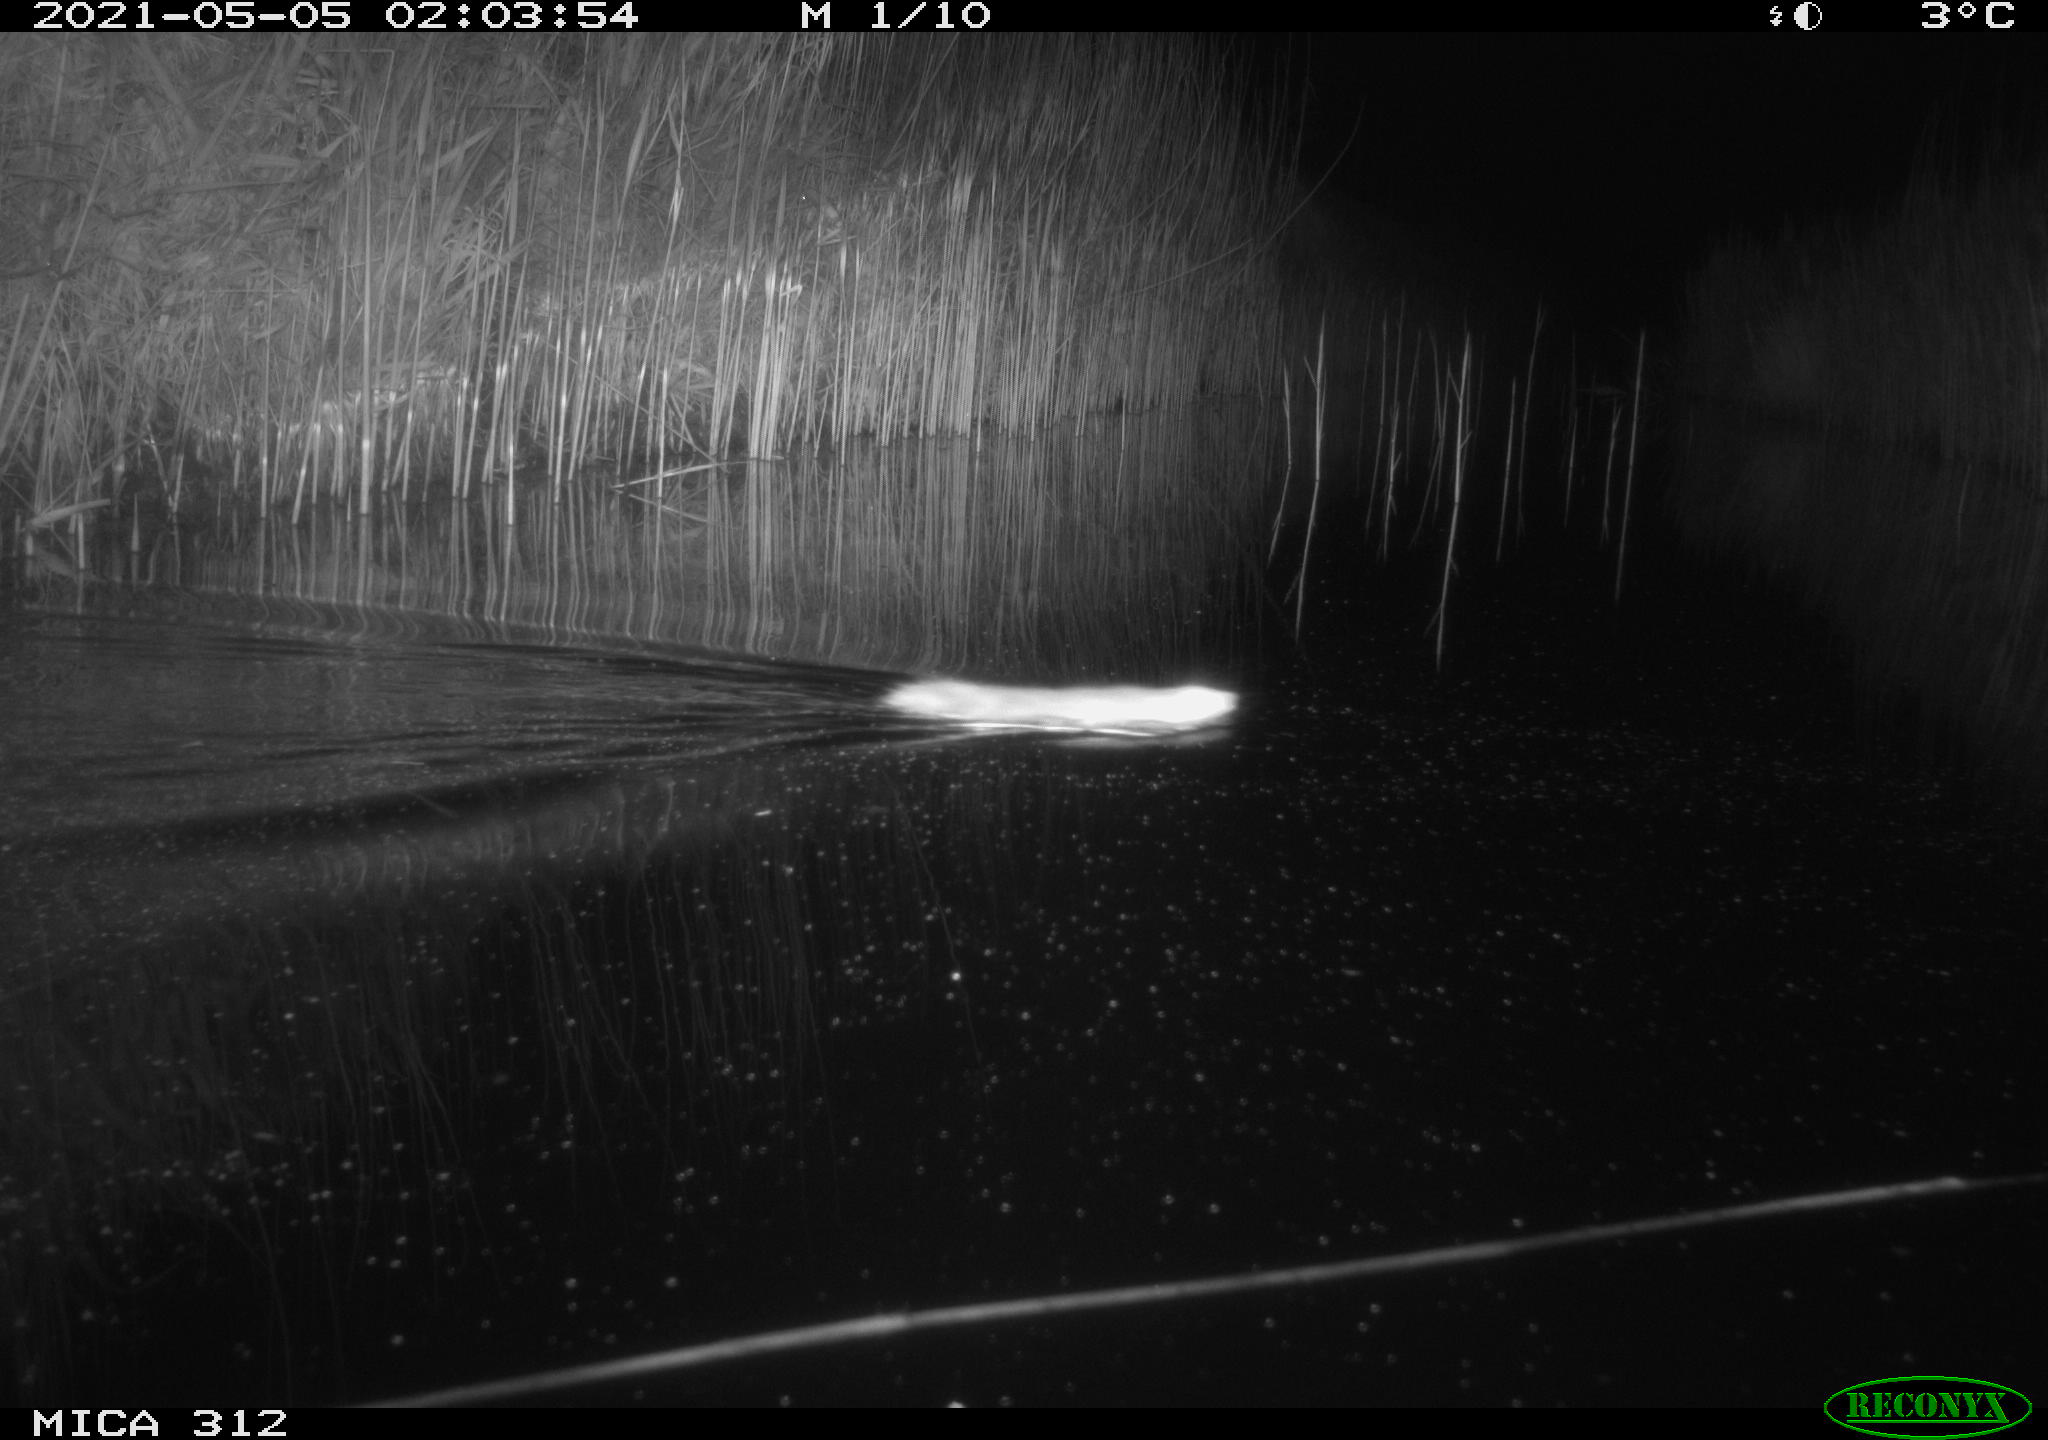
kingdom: Animalia
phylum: Chordata
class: Mammalia
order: Rodentia
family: Muridae
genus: Rattus
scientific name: Rattus norvegicus
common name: Brown rat
